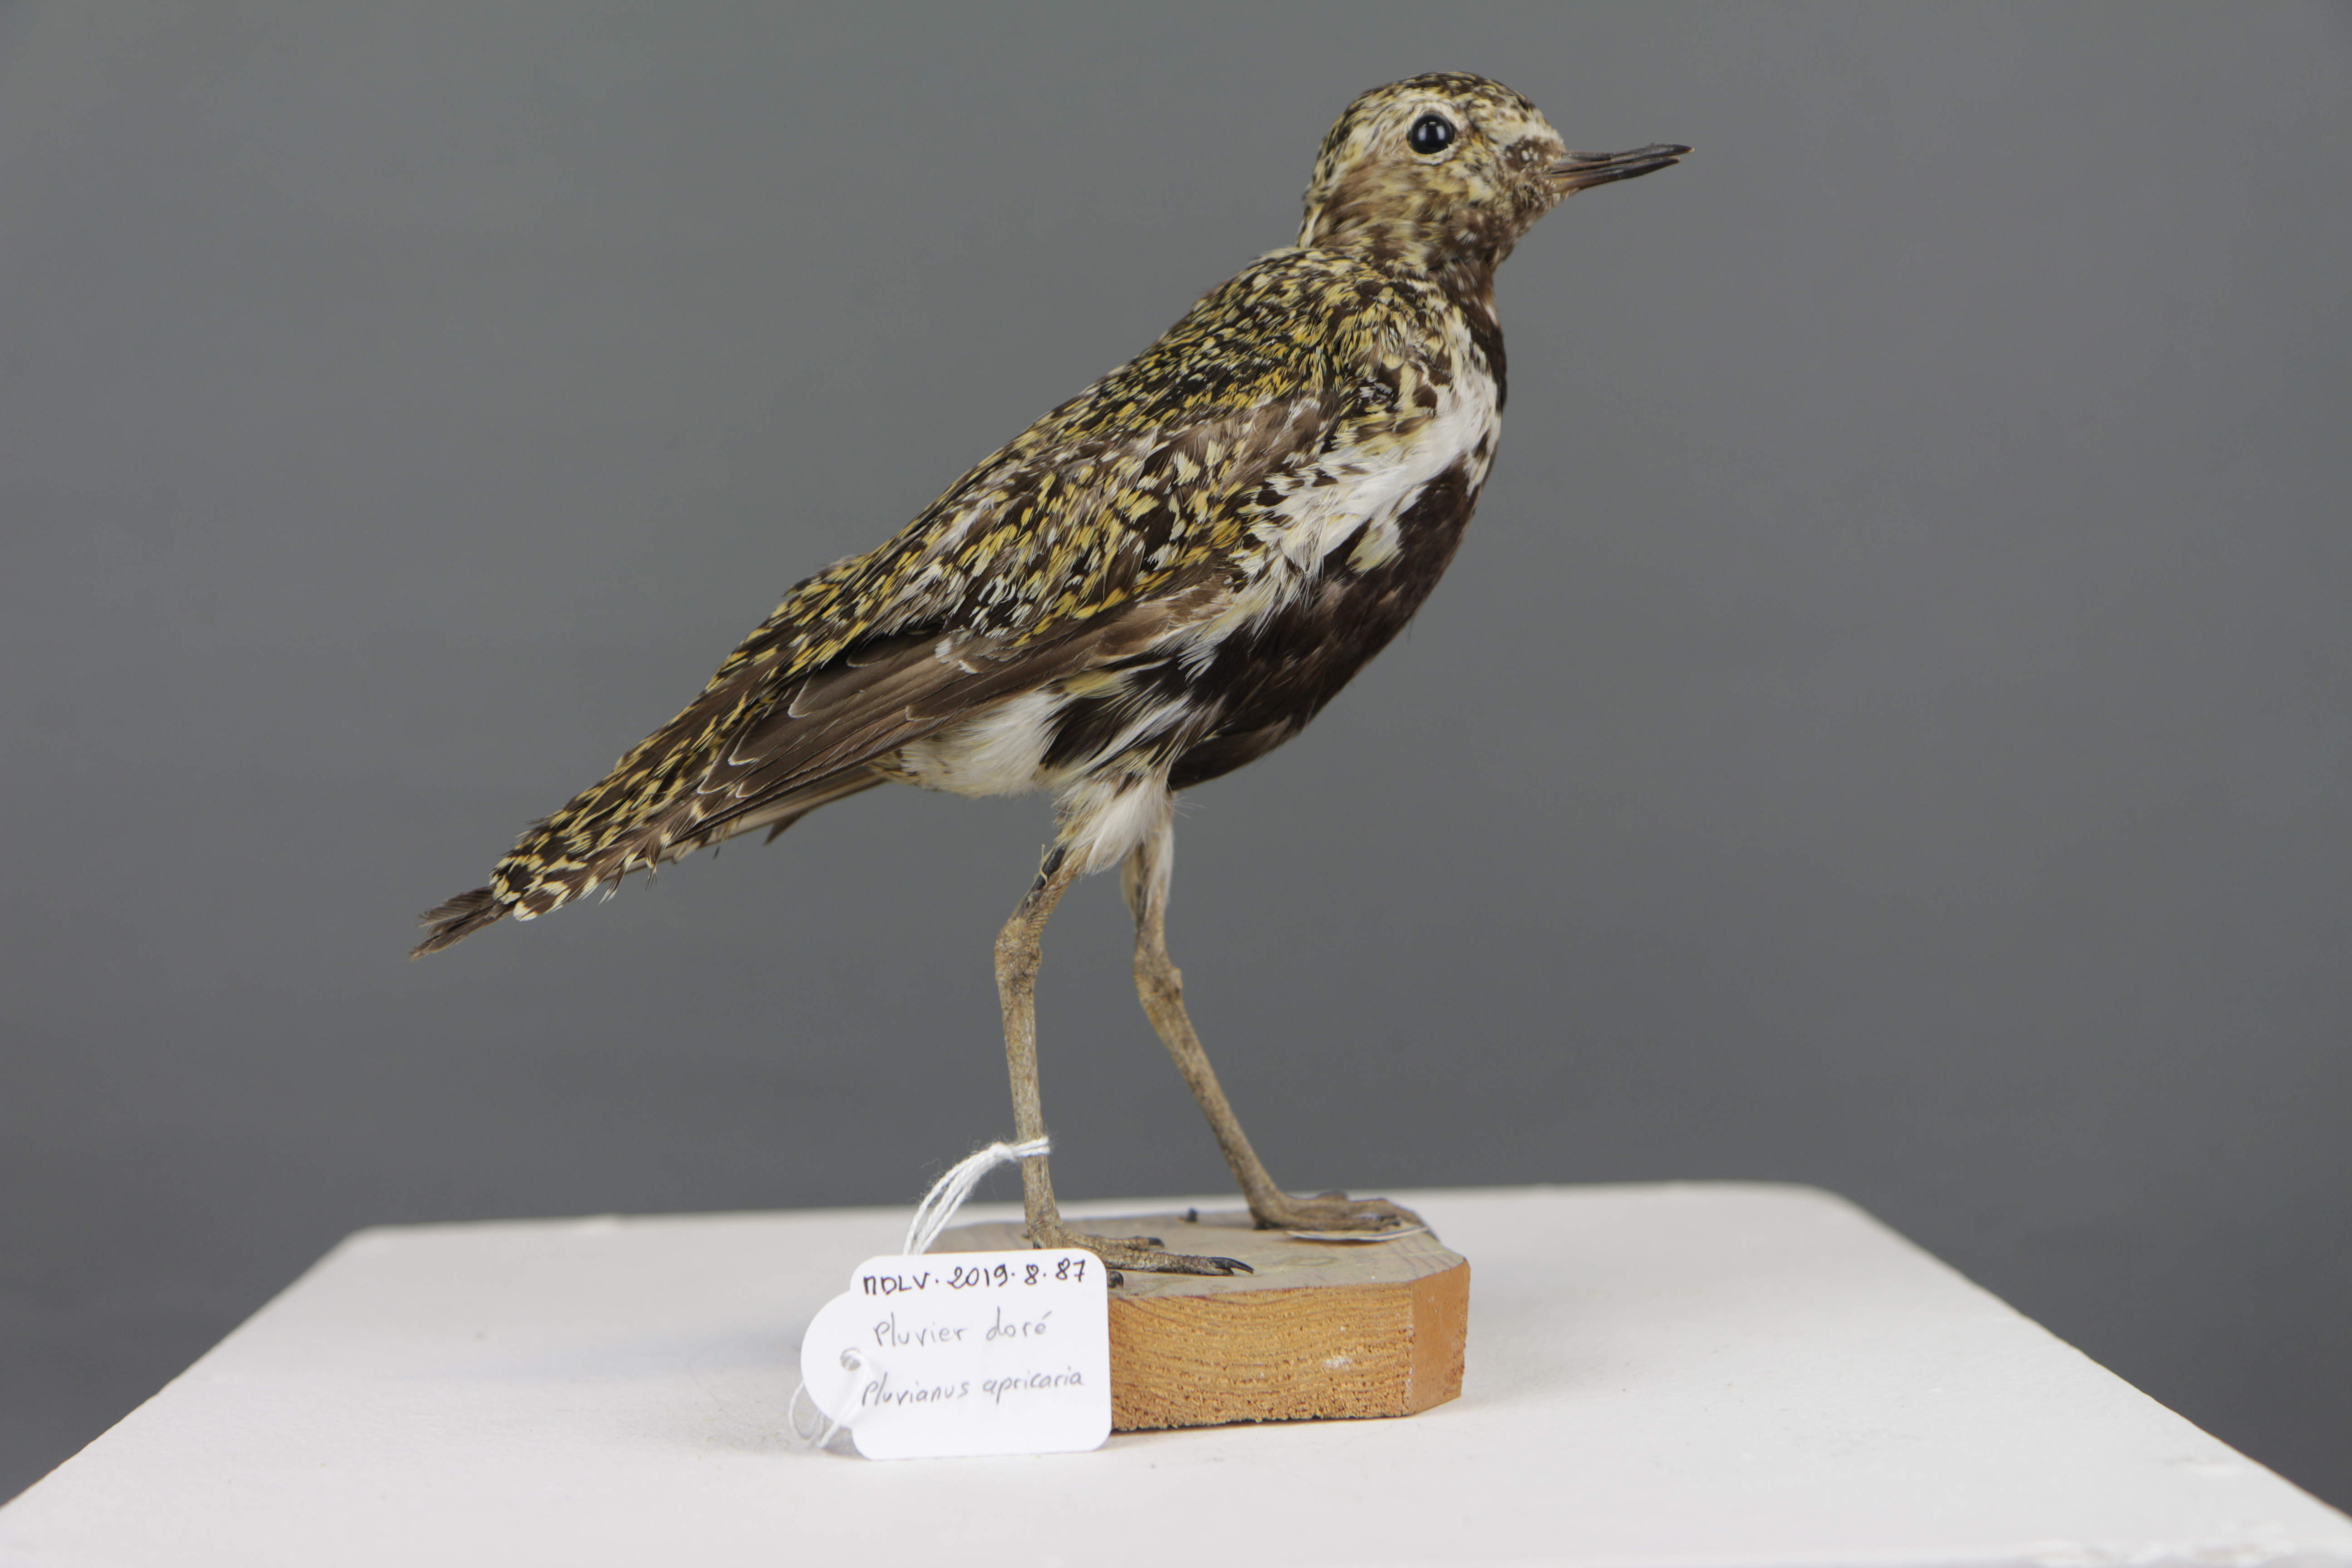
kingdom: Animalia
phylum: Chordata
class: Aves
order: Charadriiformes
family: Charadriidae
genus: Pluvialis
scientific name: Pluvialis apricaria
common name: European golden plover
